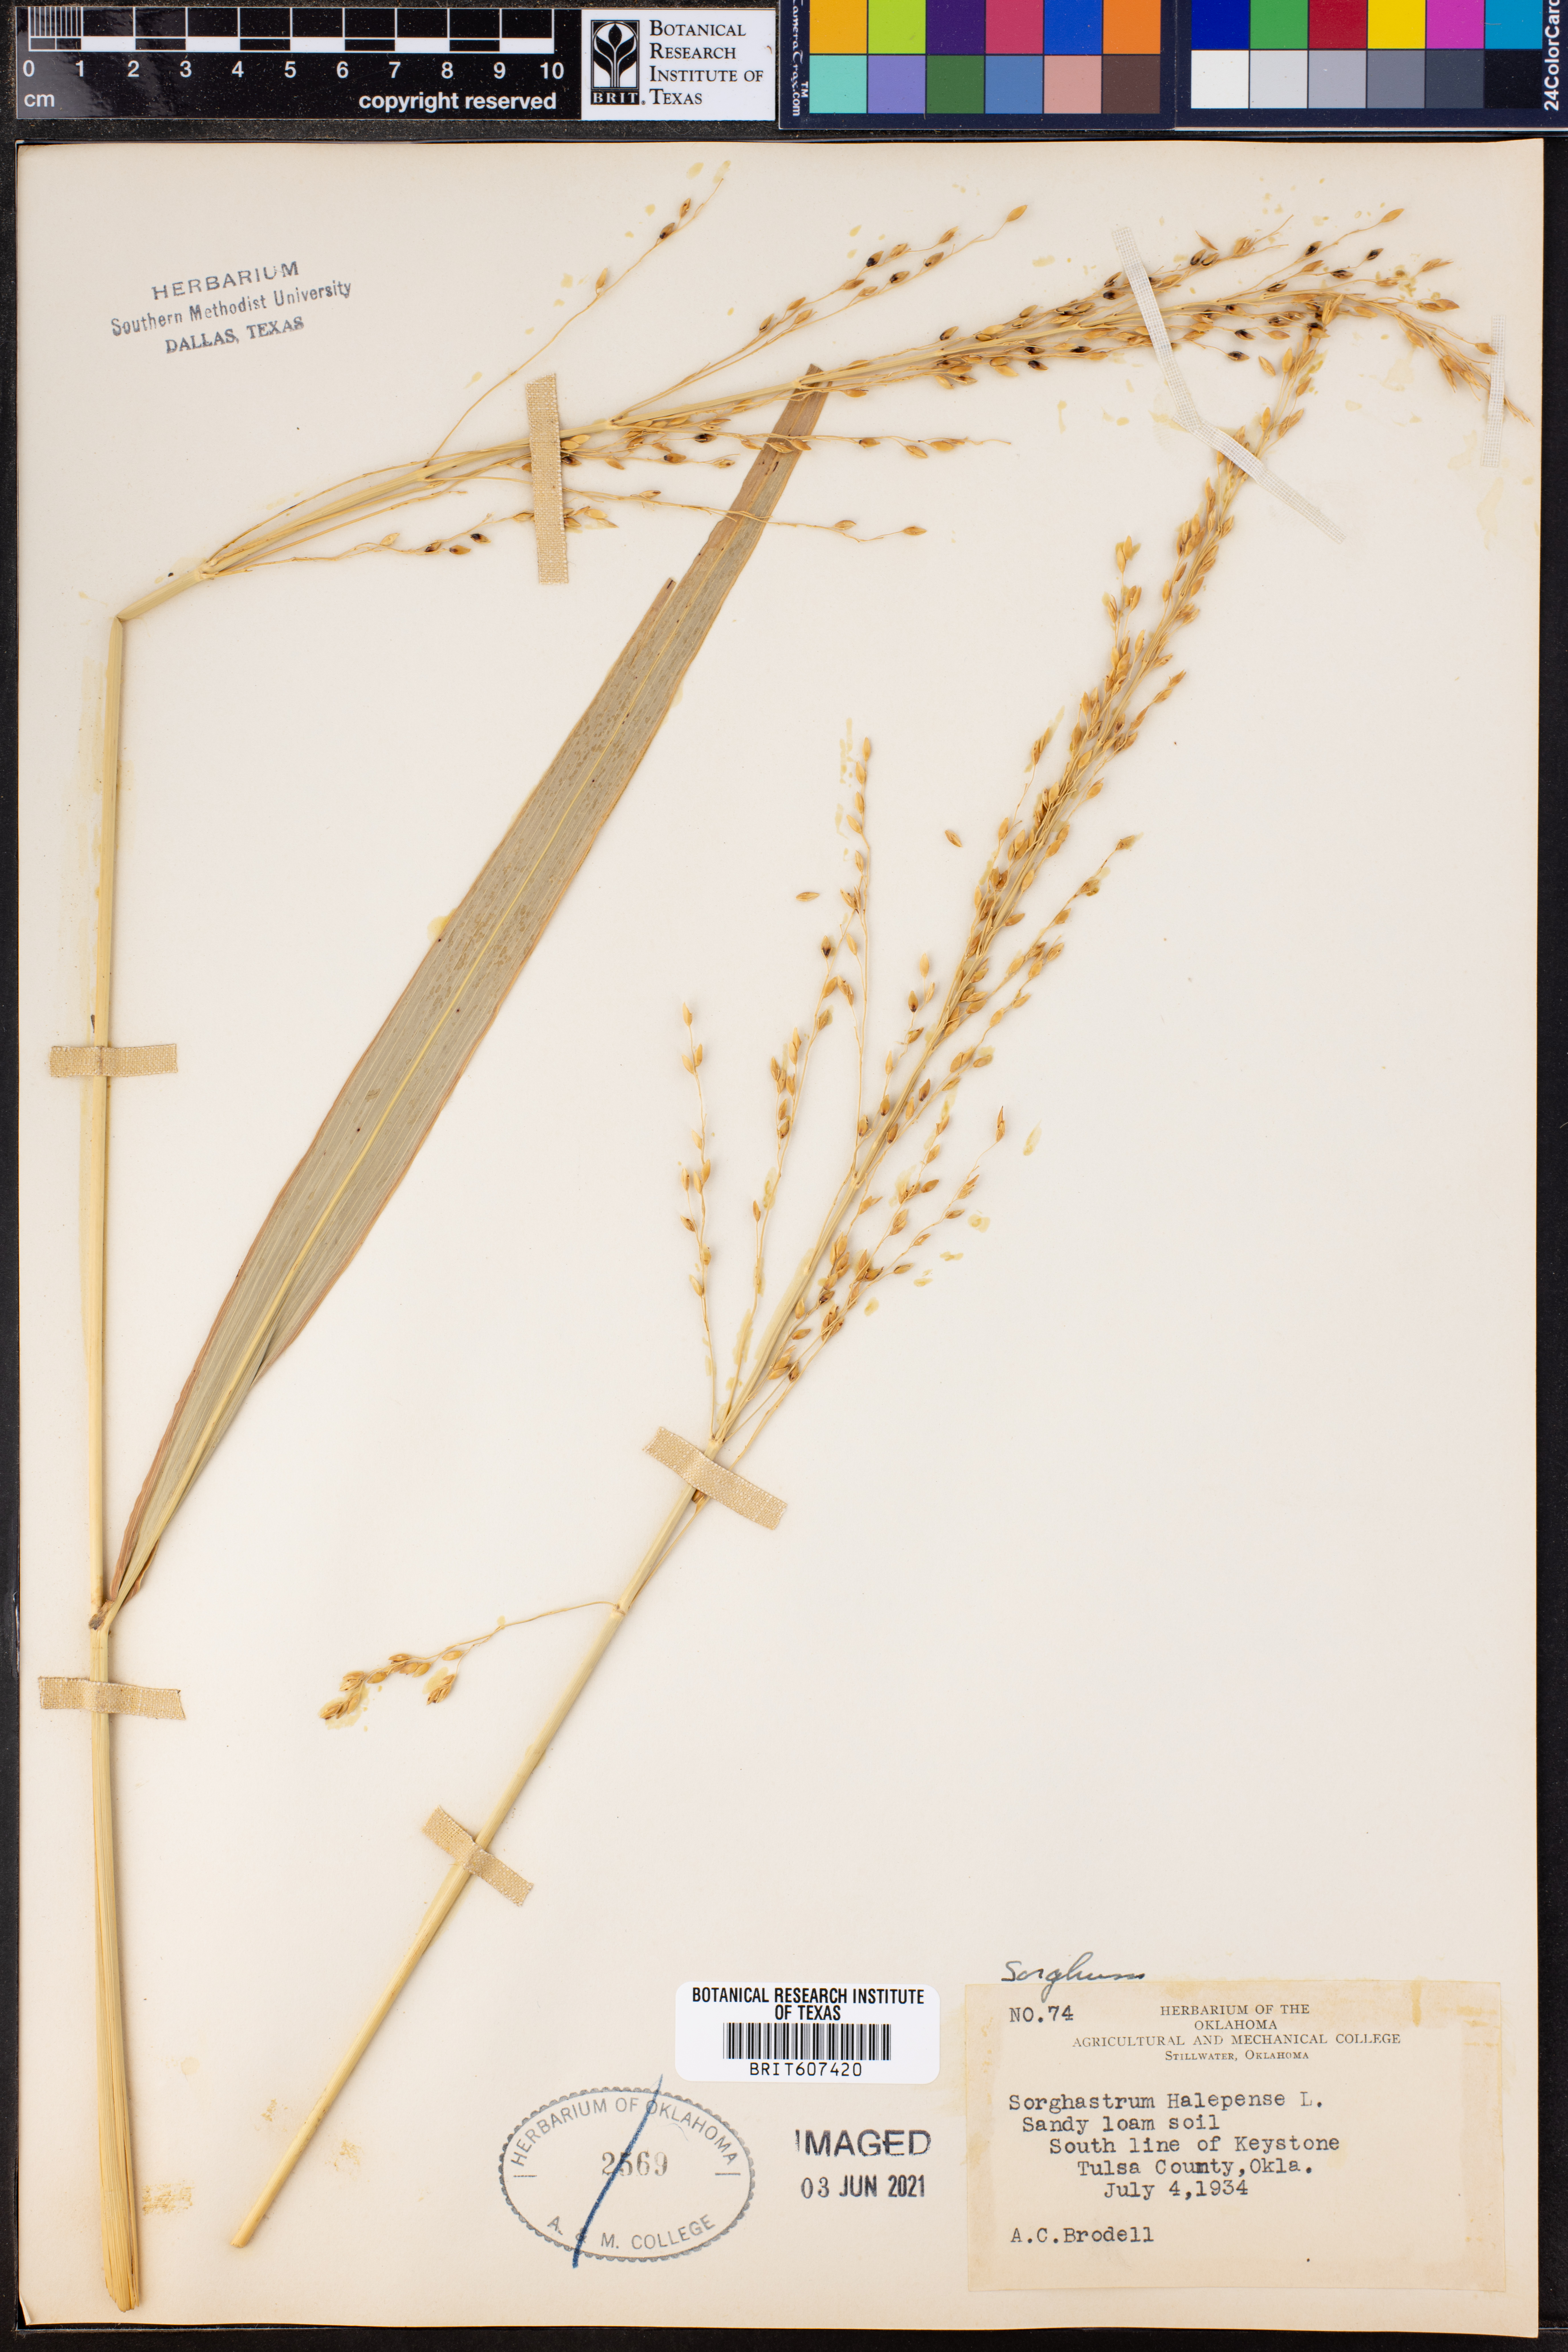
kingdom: Plantae
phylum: Tracheophyta
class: Liliopsida
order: Poales
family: Poaceae
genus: Sorghum
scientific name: Sorghum halepense
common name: Johnson-grass
